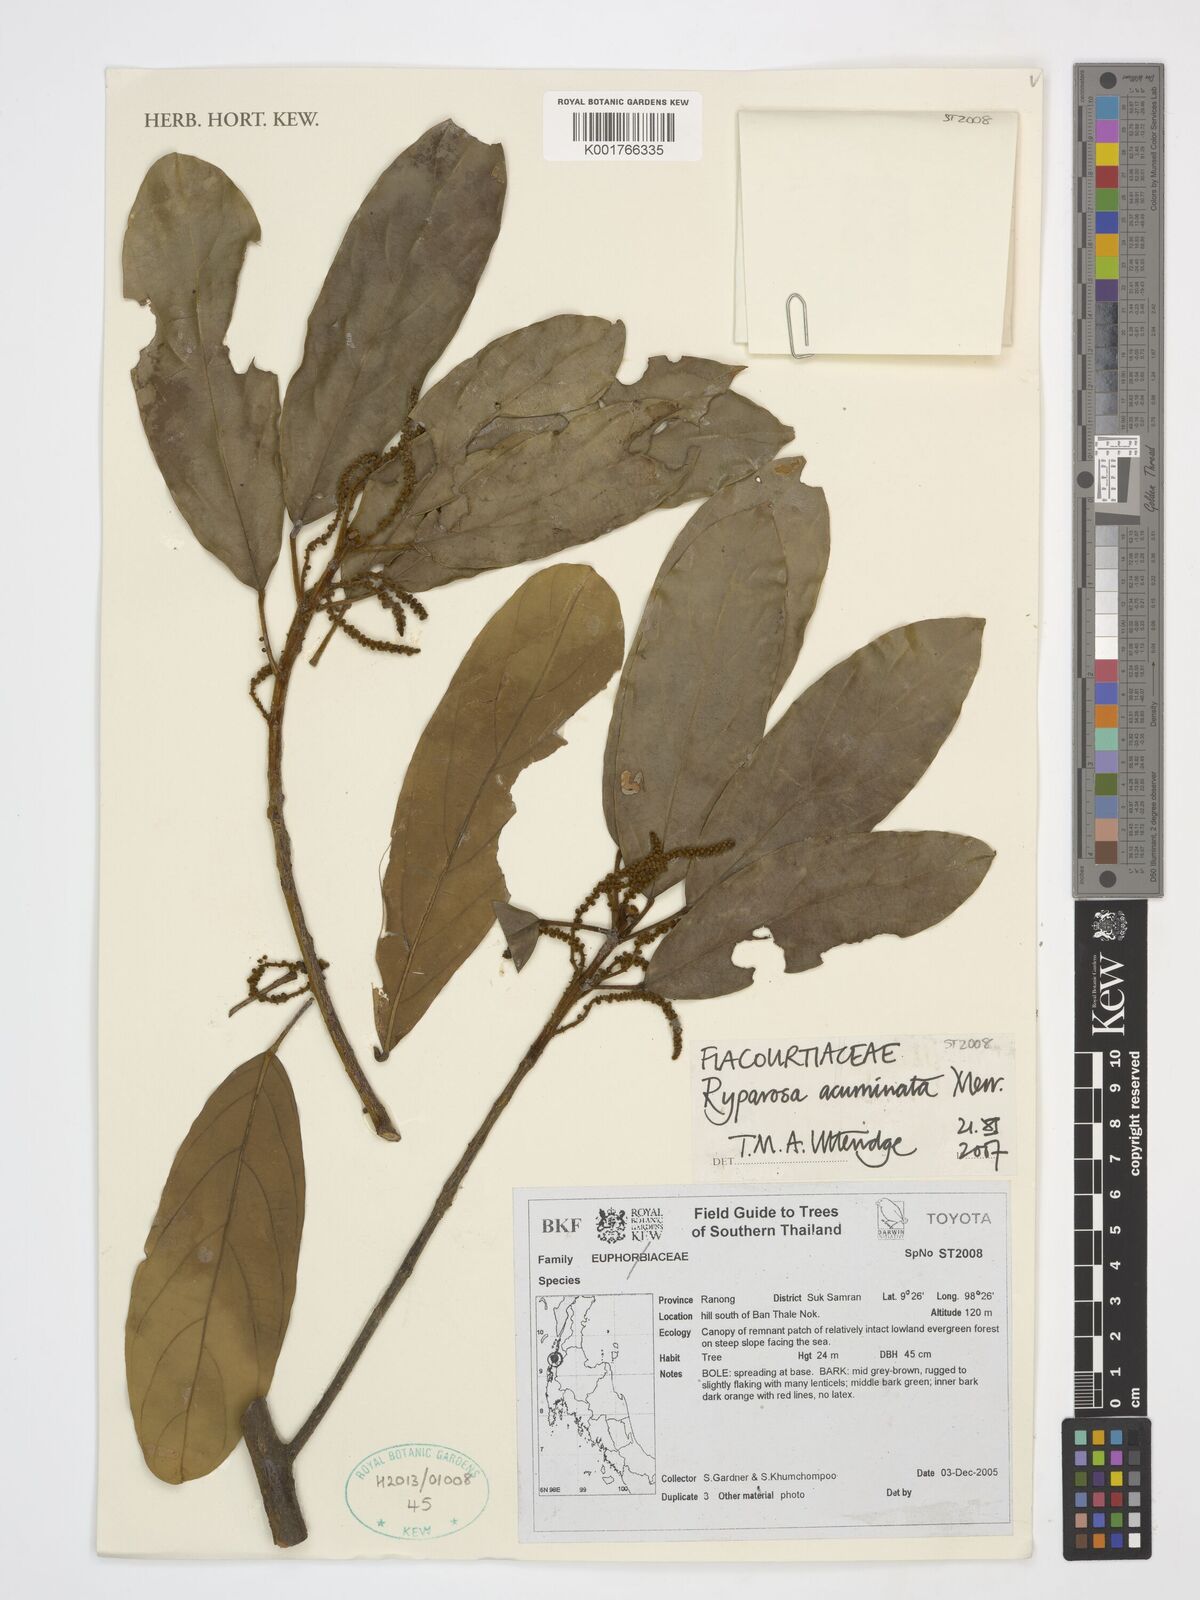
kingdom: Plantae
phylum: Tracheophyta
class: Magnoliopsida
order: Malpighiales
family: Achariaceae
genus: Ryparosa
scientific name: Ryparosa acuminata
